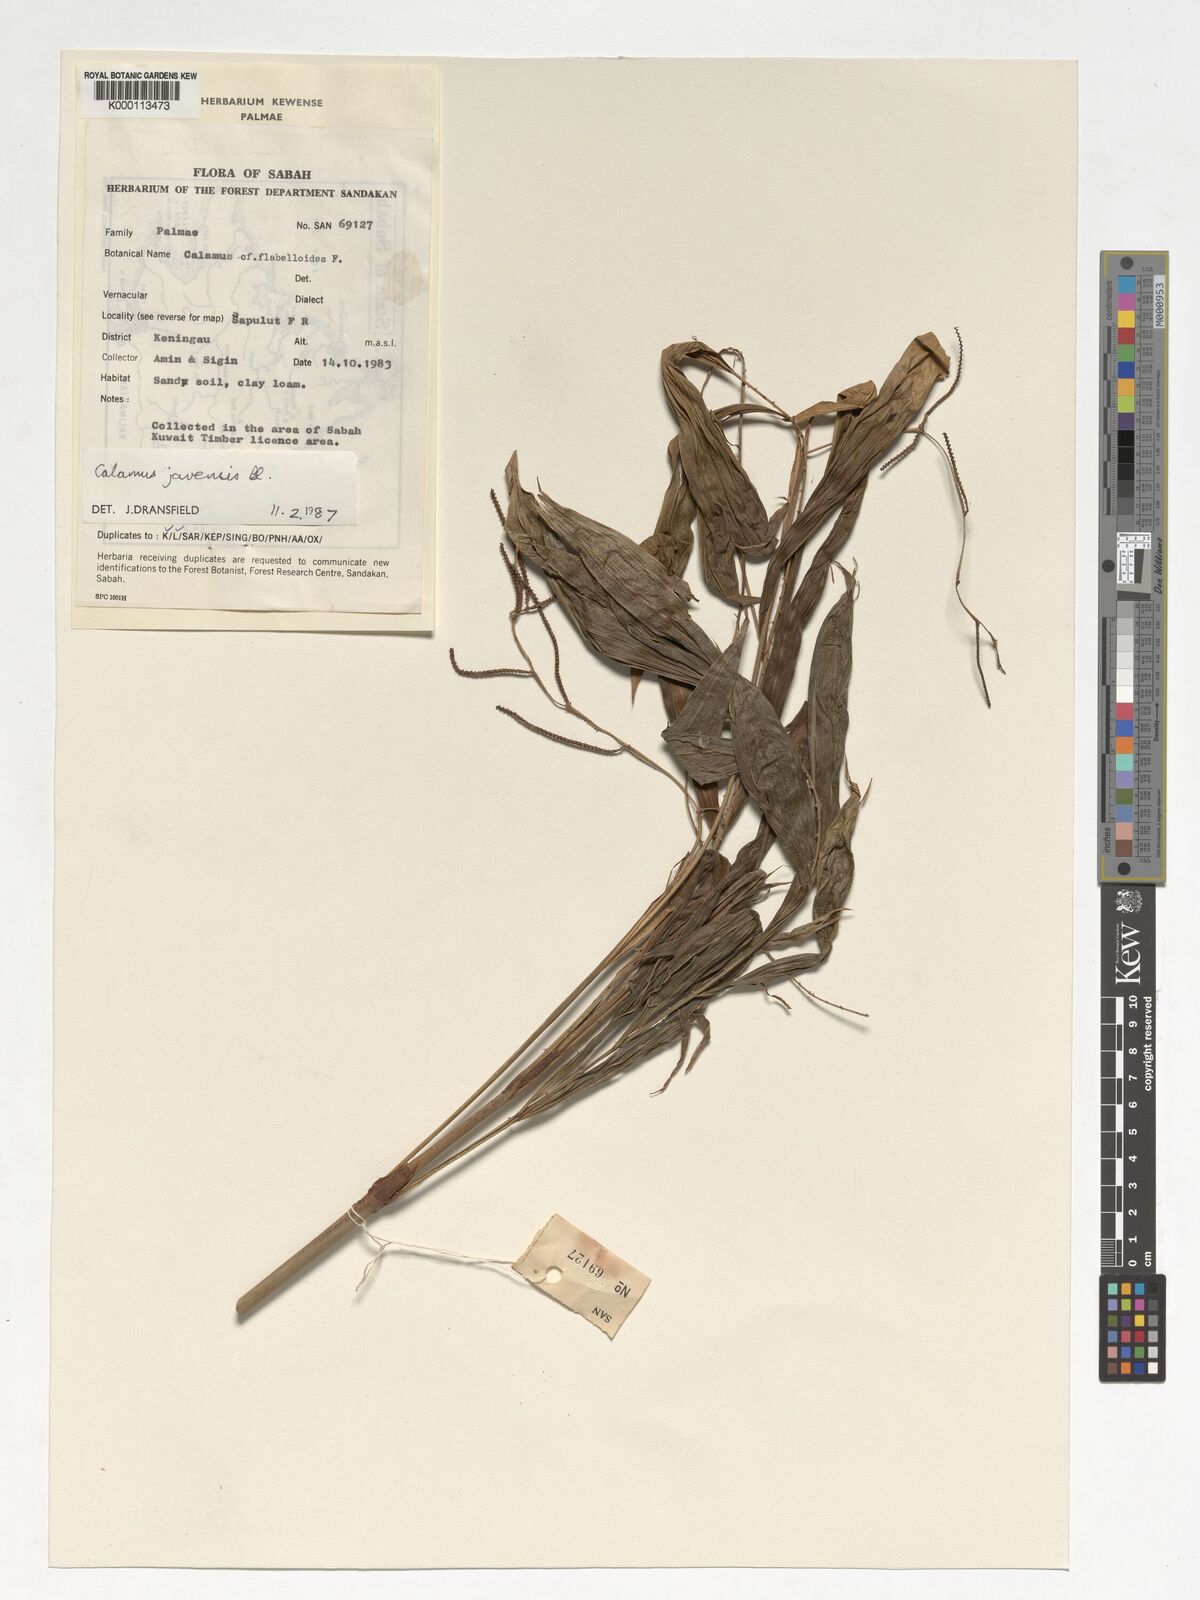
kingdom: Plantae
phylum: Tracheophyta
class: Liliopsida
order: Arecales
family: Arecaceae
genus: Calamus
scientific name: Calamus javensis
